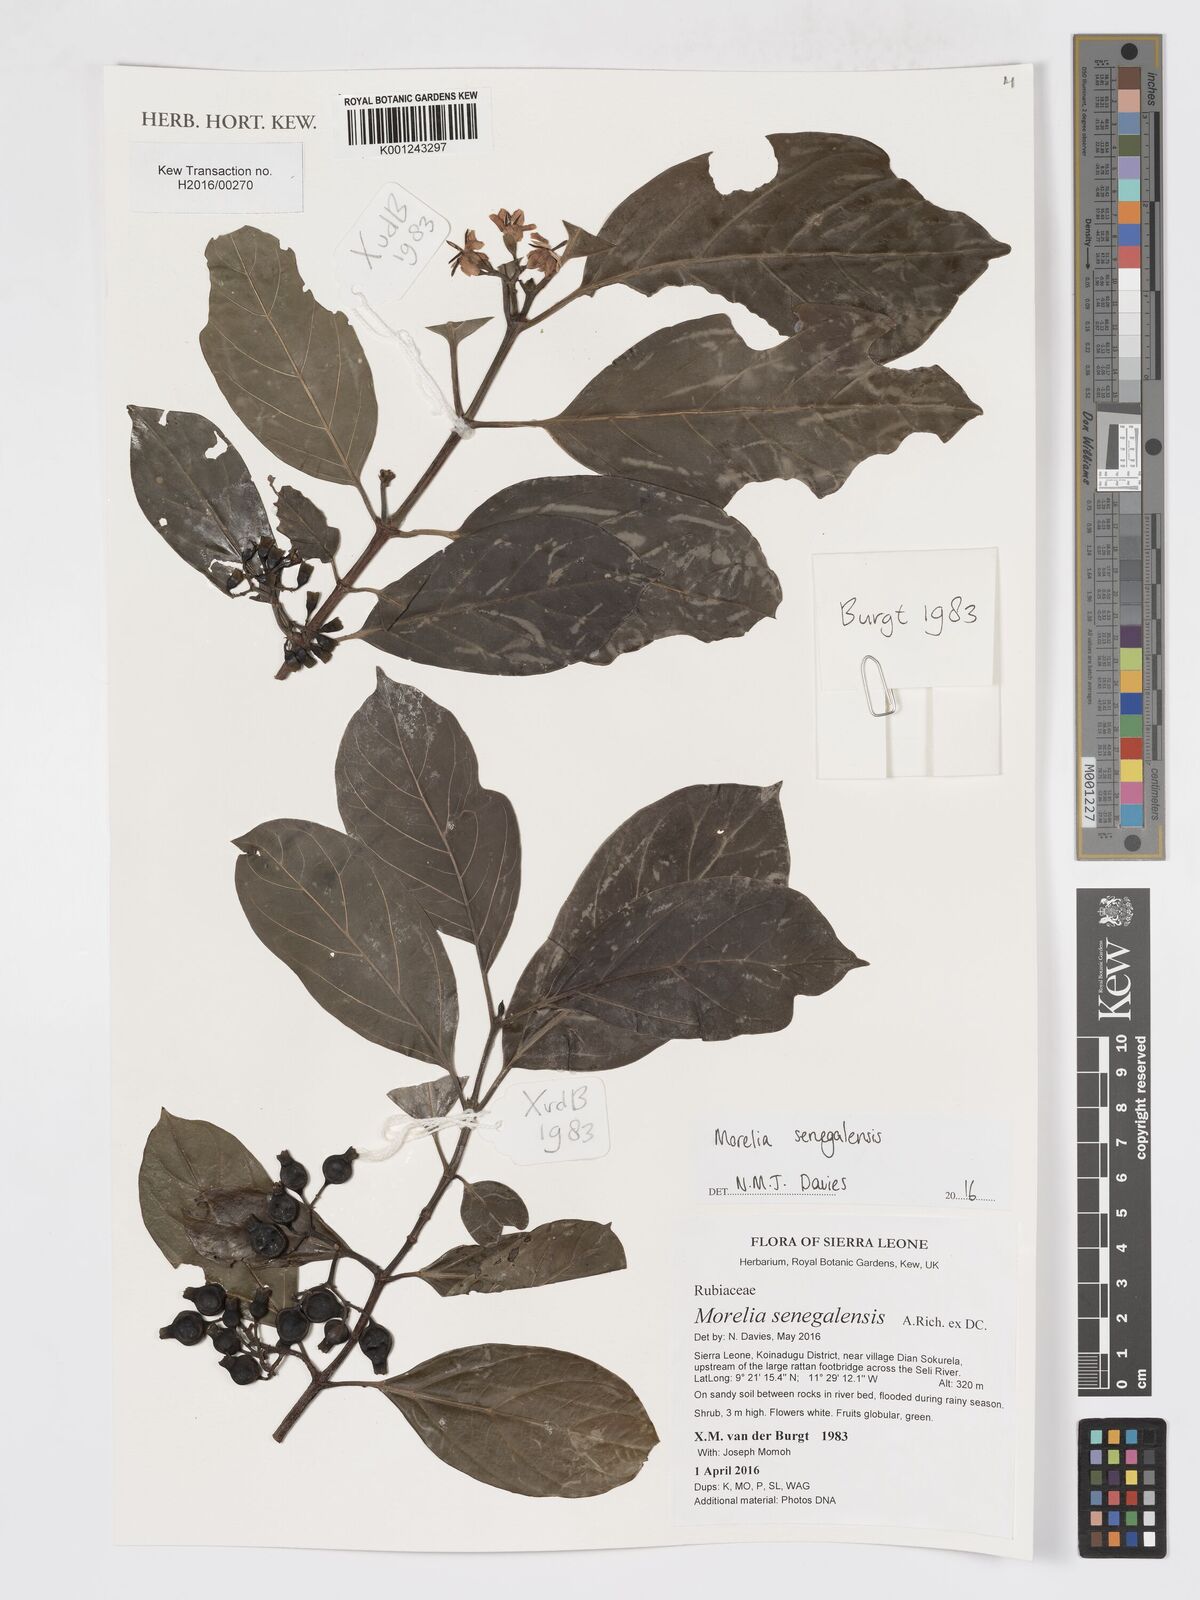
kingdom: Plantae
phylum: Tracheophyta
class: Magnoliopsida
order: Gentianales
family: Rubiaceae
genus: Morelia
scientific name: Morelia senegalensis
